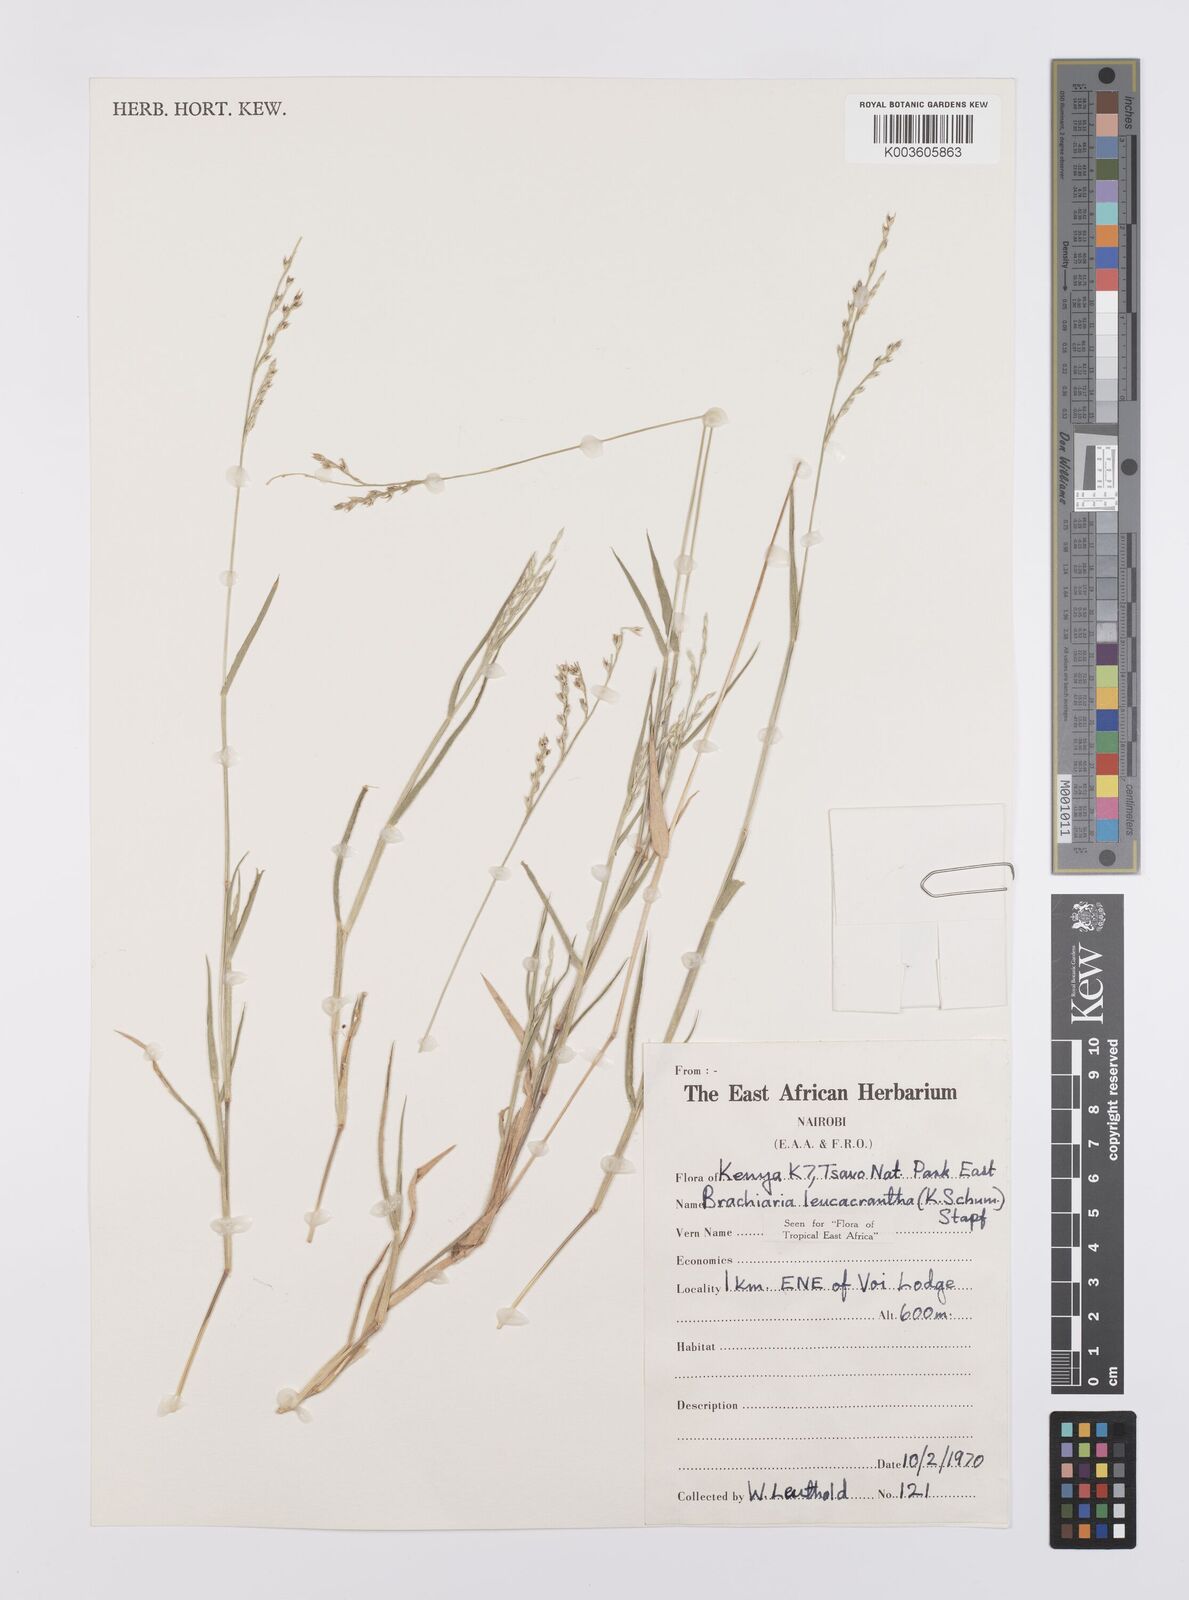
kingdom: Plantae
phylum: Tracheophyta
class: Liliopsida
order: Poales
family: Poaceae
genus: Urochloa
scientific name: Urochloa xantholeuca
